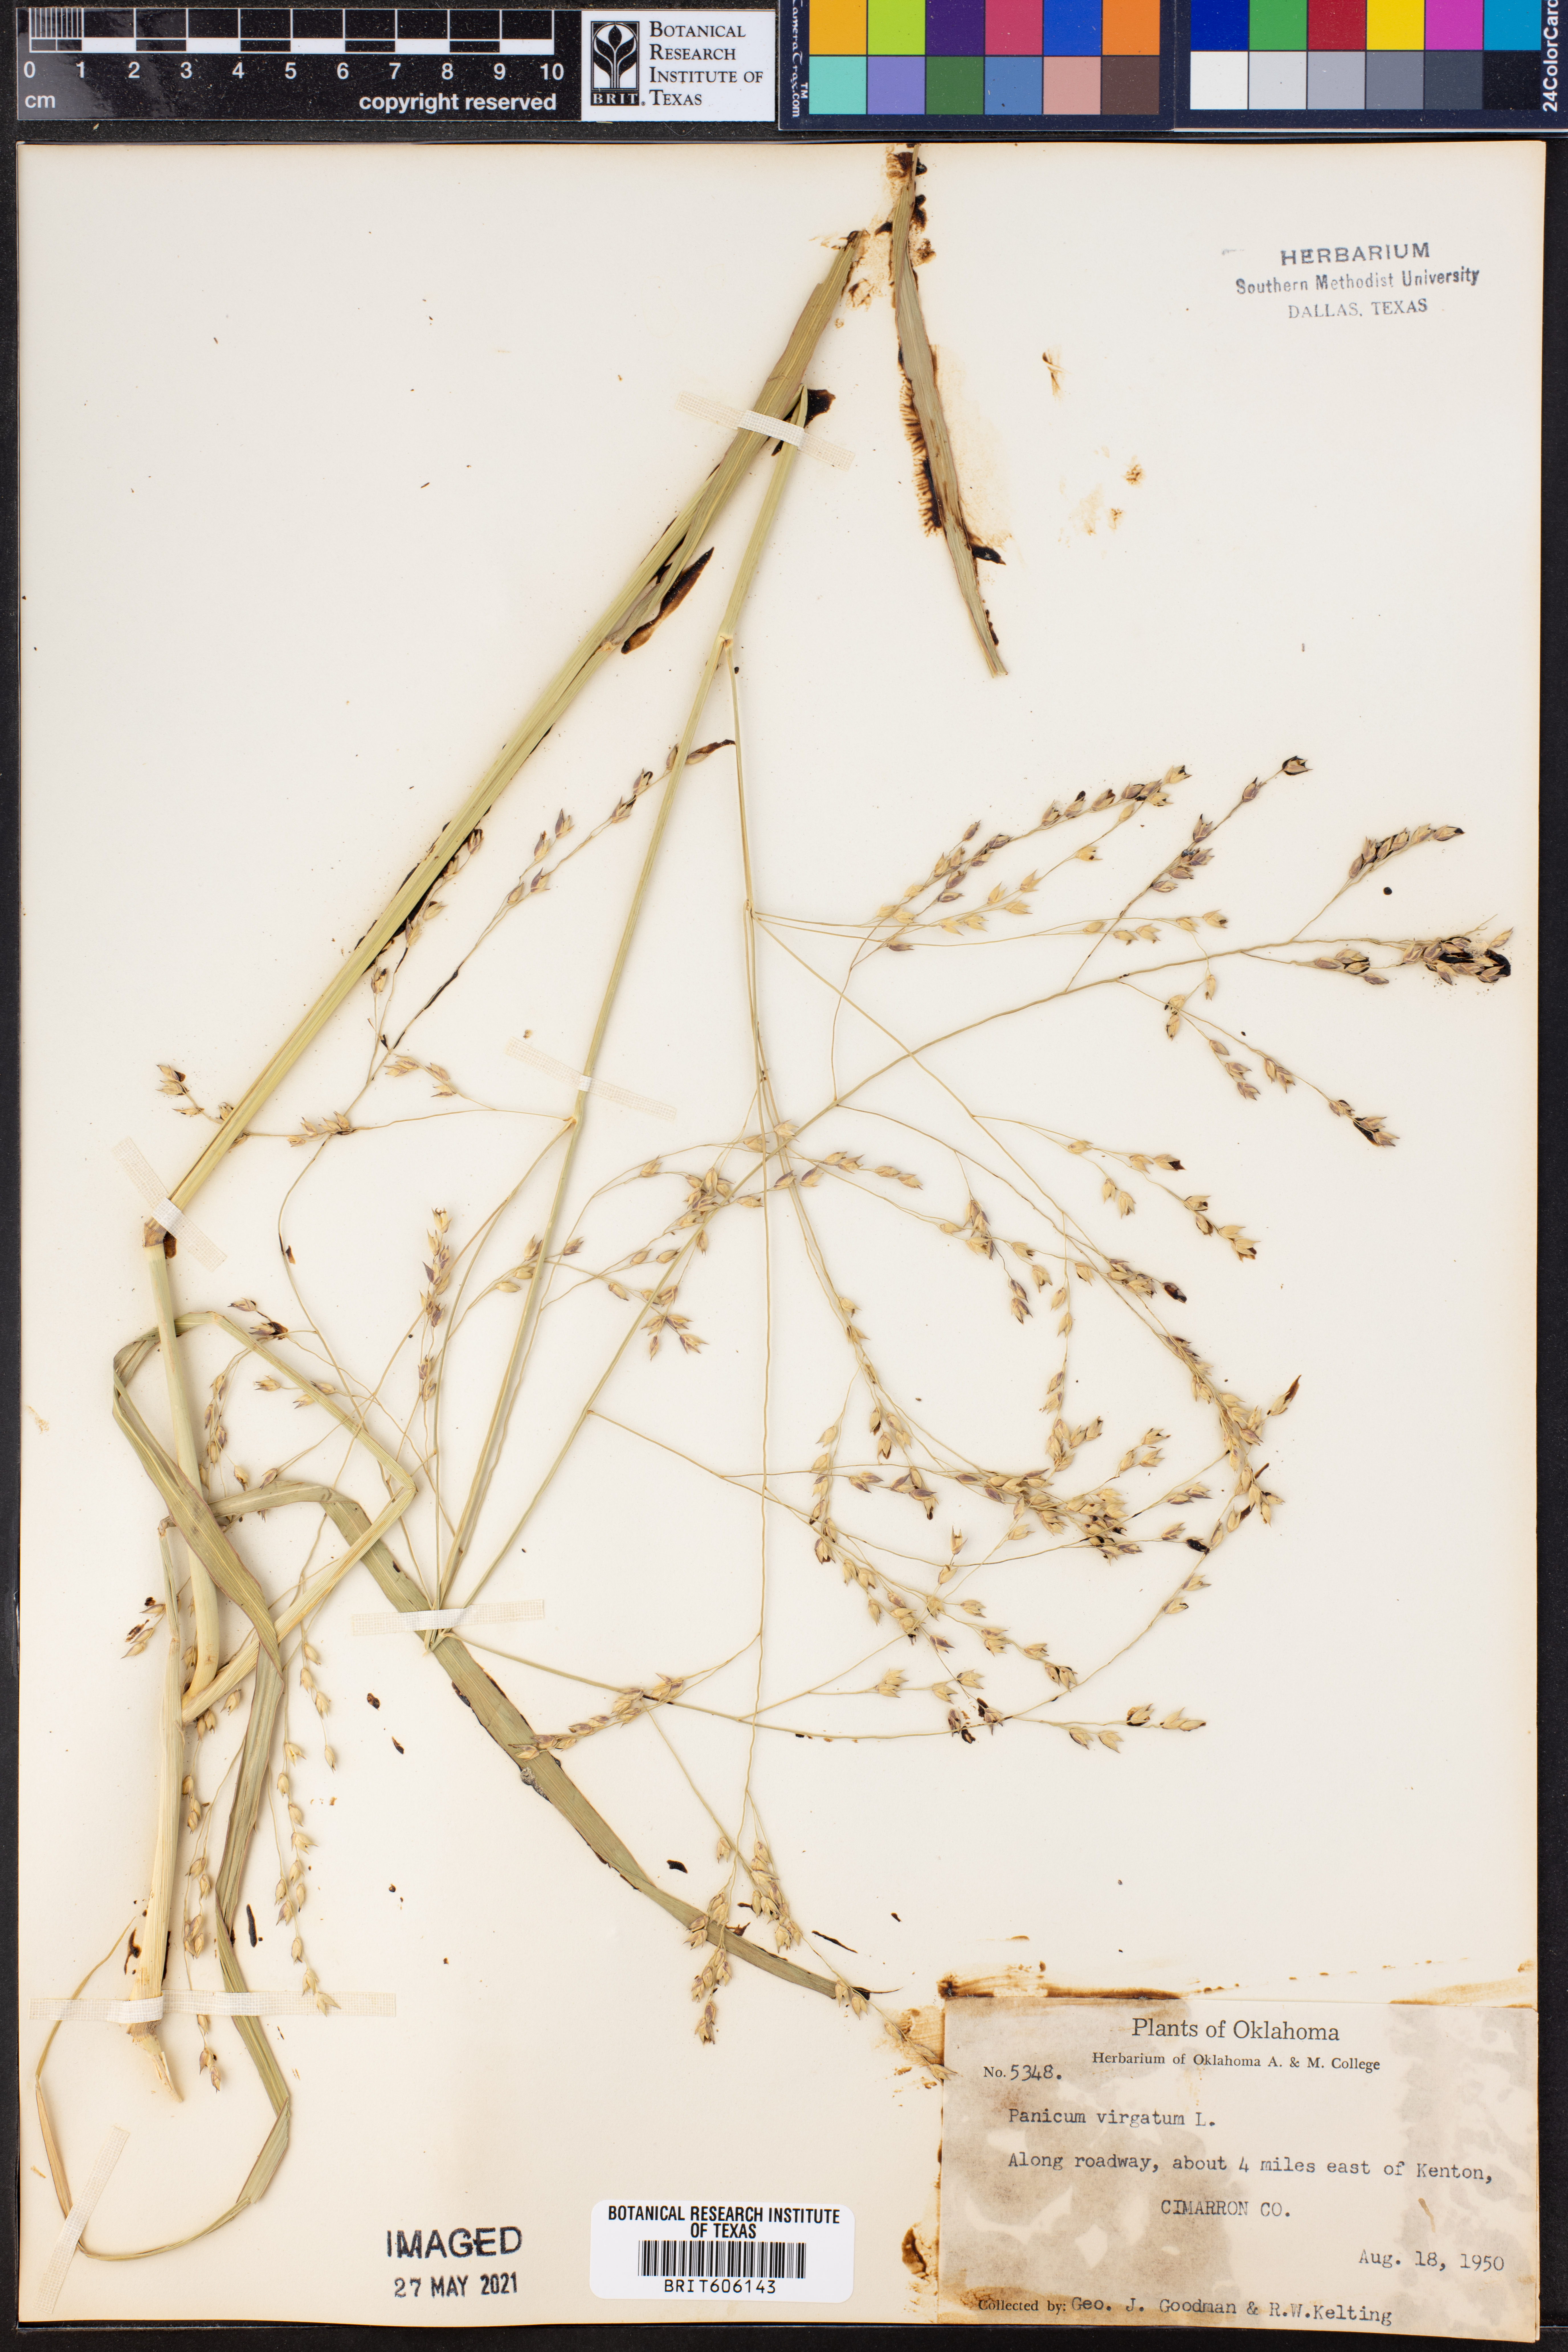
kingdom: Plantae
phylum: Tracheophyta
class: Liliopsida
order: Poales
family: Poaceae
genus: Panicum
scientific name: Panicum virgatum
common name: Switchgrass
